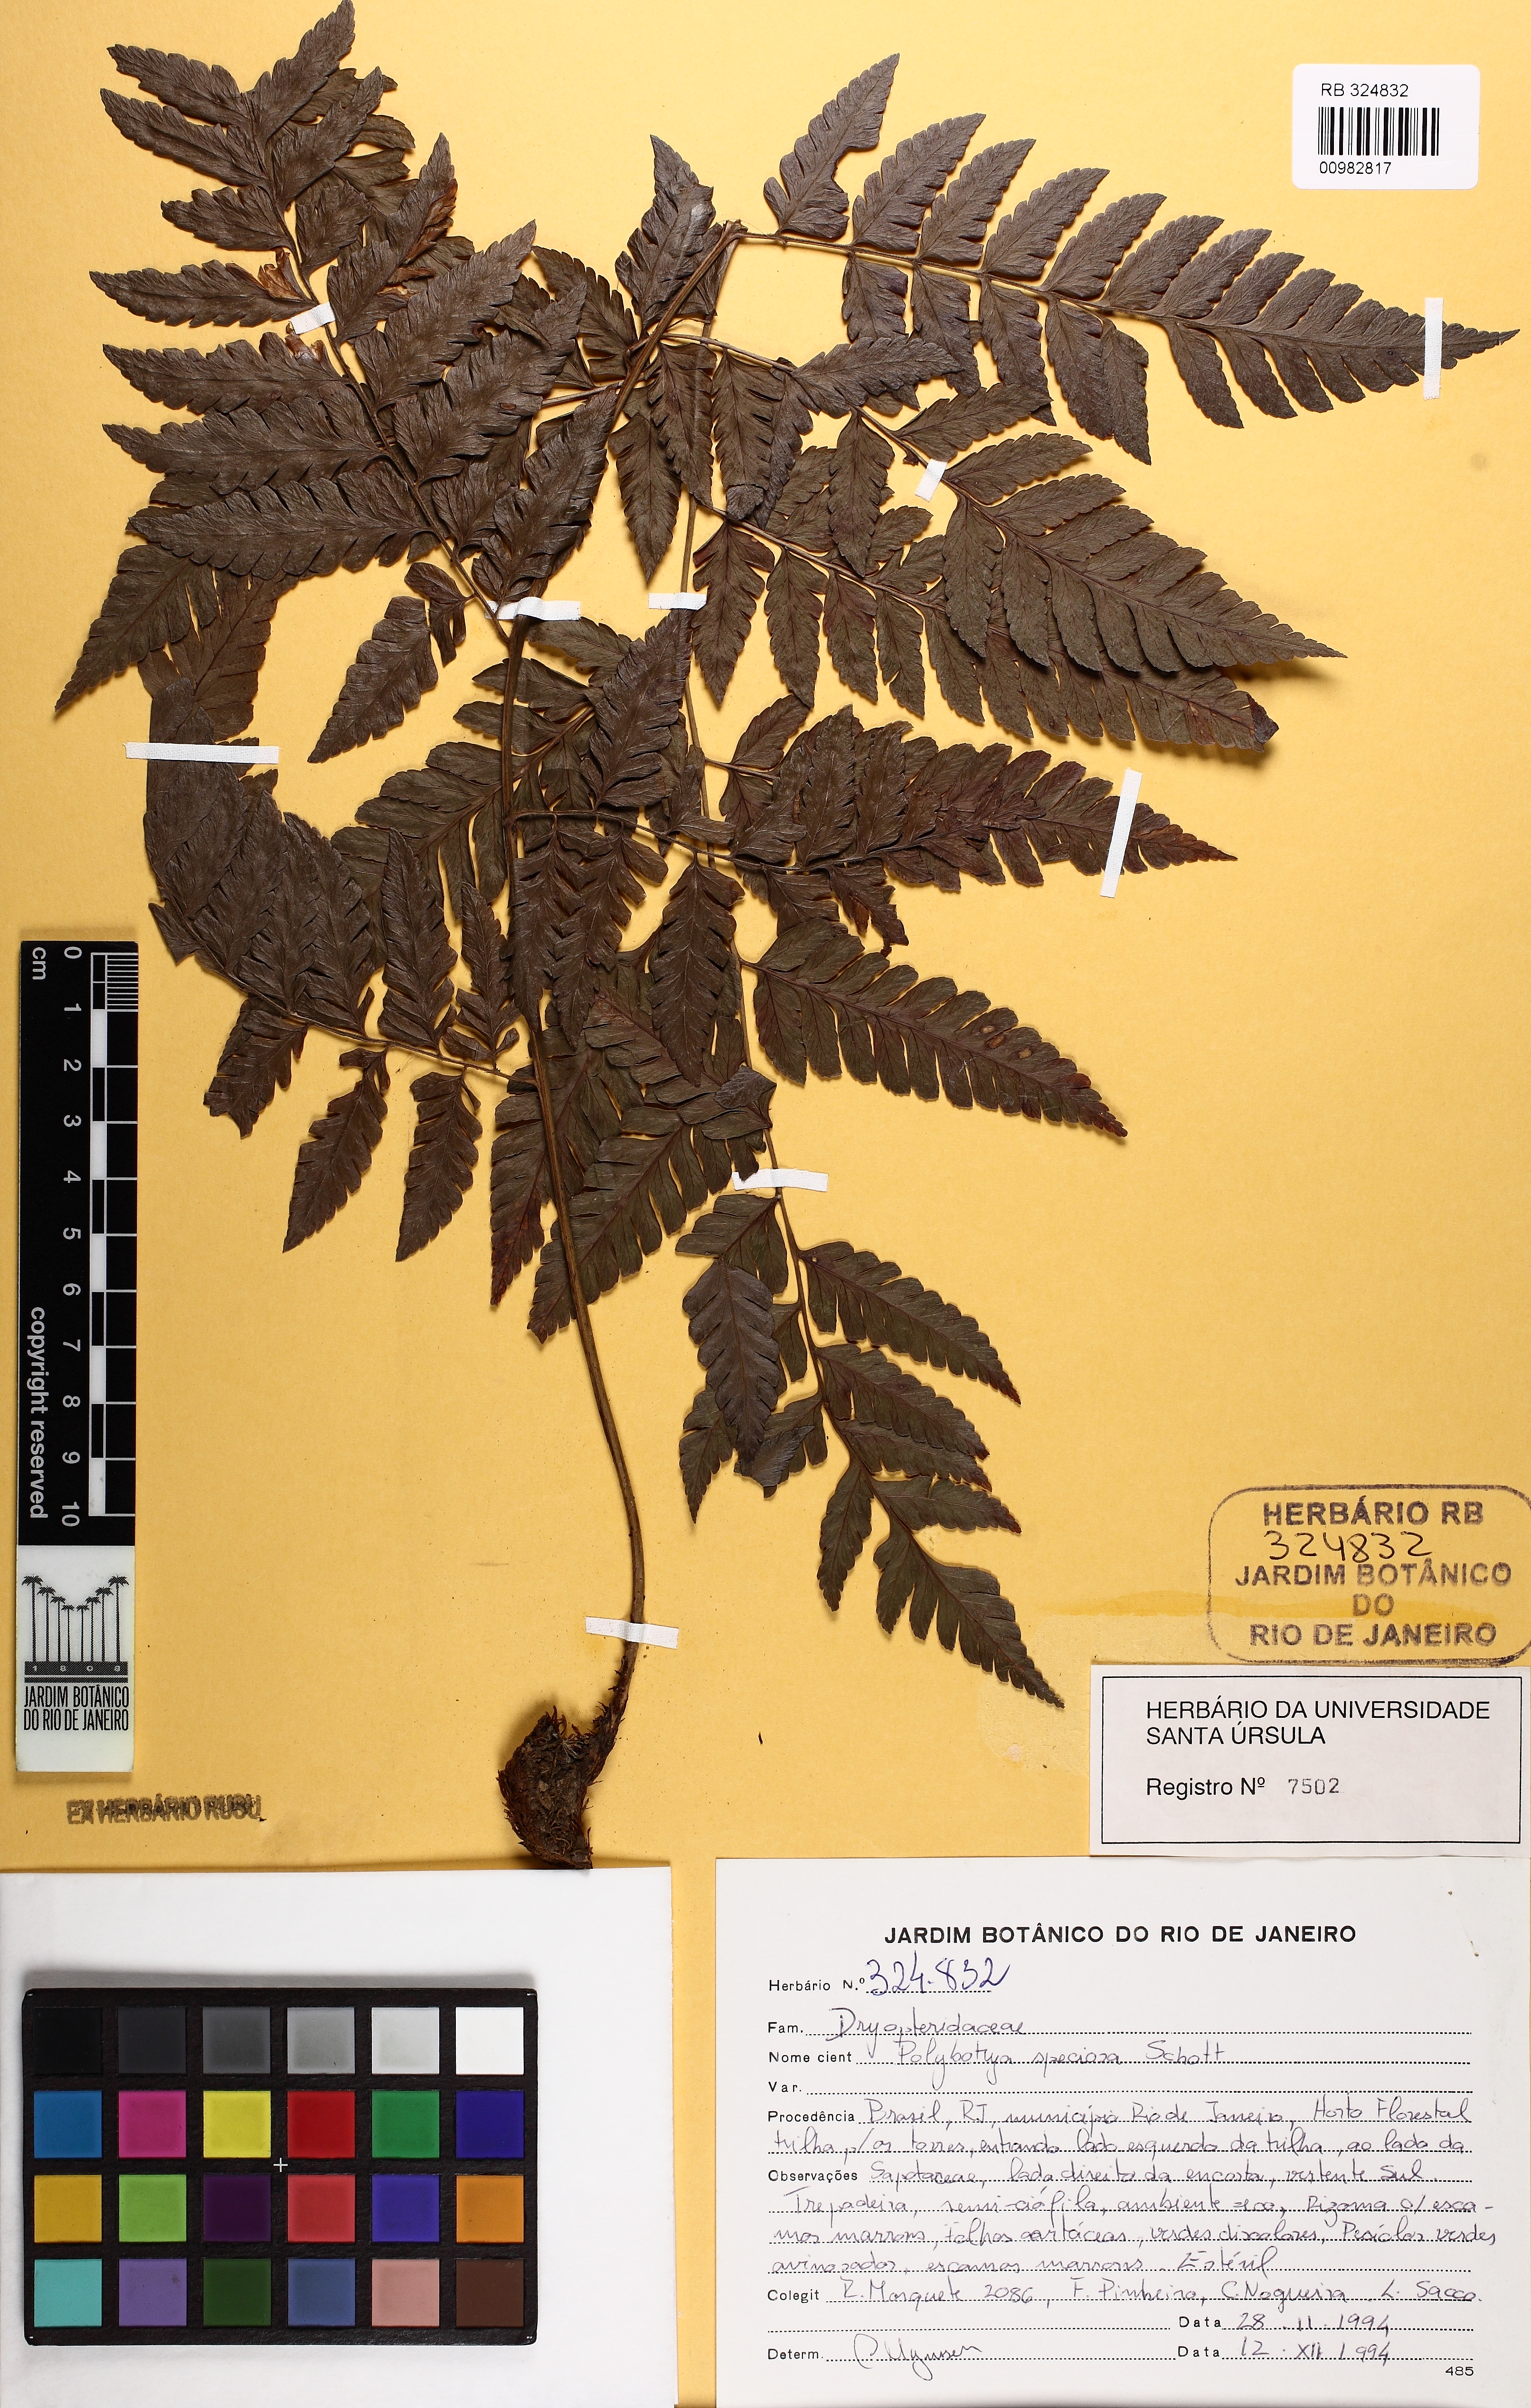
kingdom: Plantae
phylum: Tracheophyta
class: Polypodiopsida
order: Polypodiales
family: Dryopteridaceae
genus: Polybotrya
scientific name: Polybotrya pilosa
